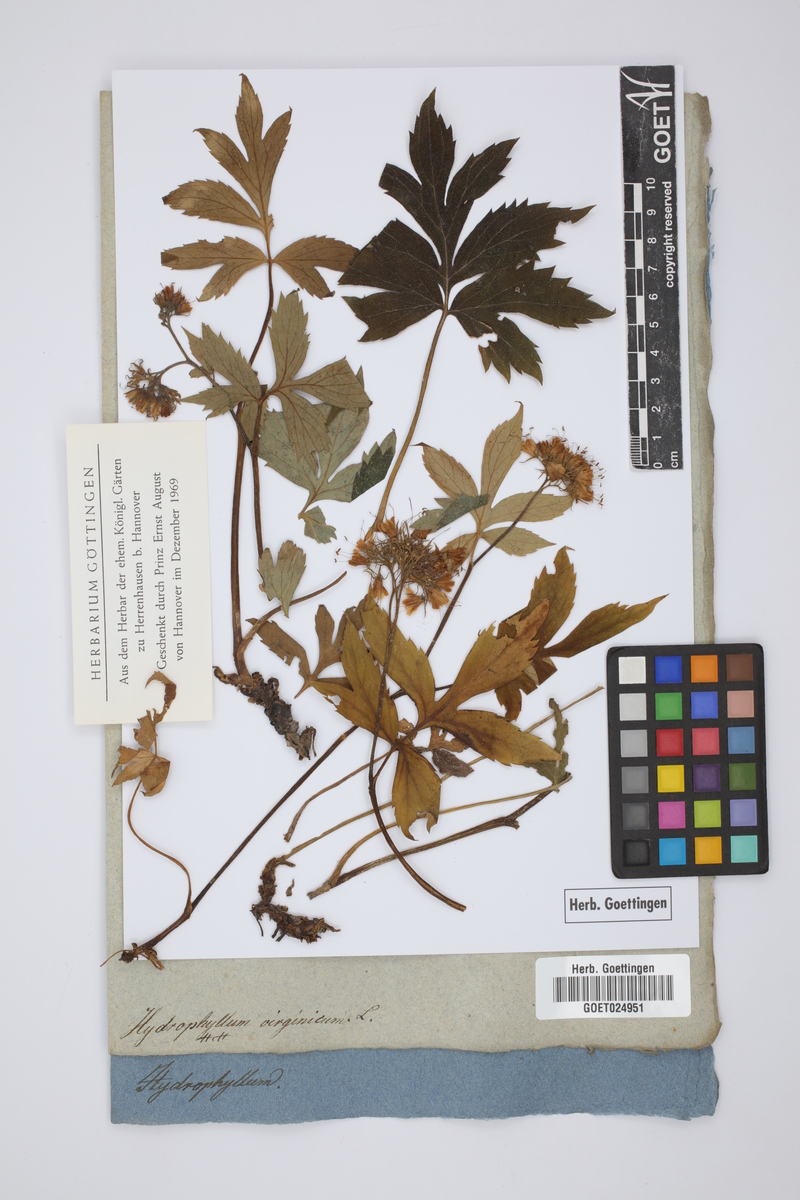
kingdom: Plantae
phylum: Tracheophyta
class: Magnoliopsida
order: Boraginales
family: Hydrophyllaceae
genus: Hydrophyllum
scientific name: Hydrophyllum virginianum
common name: Virginia waterleaf
